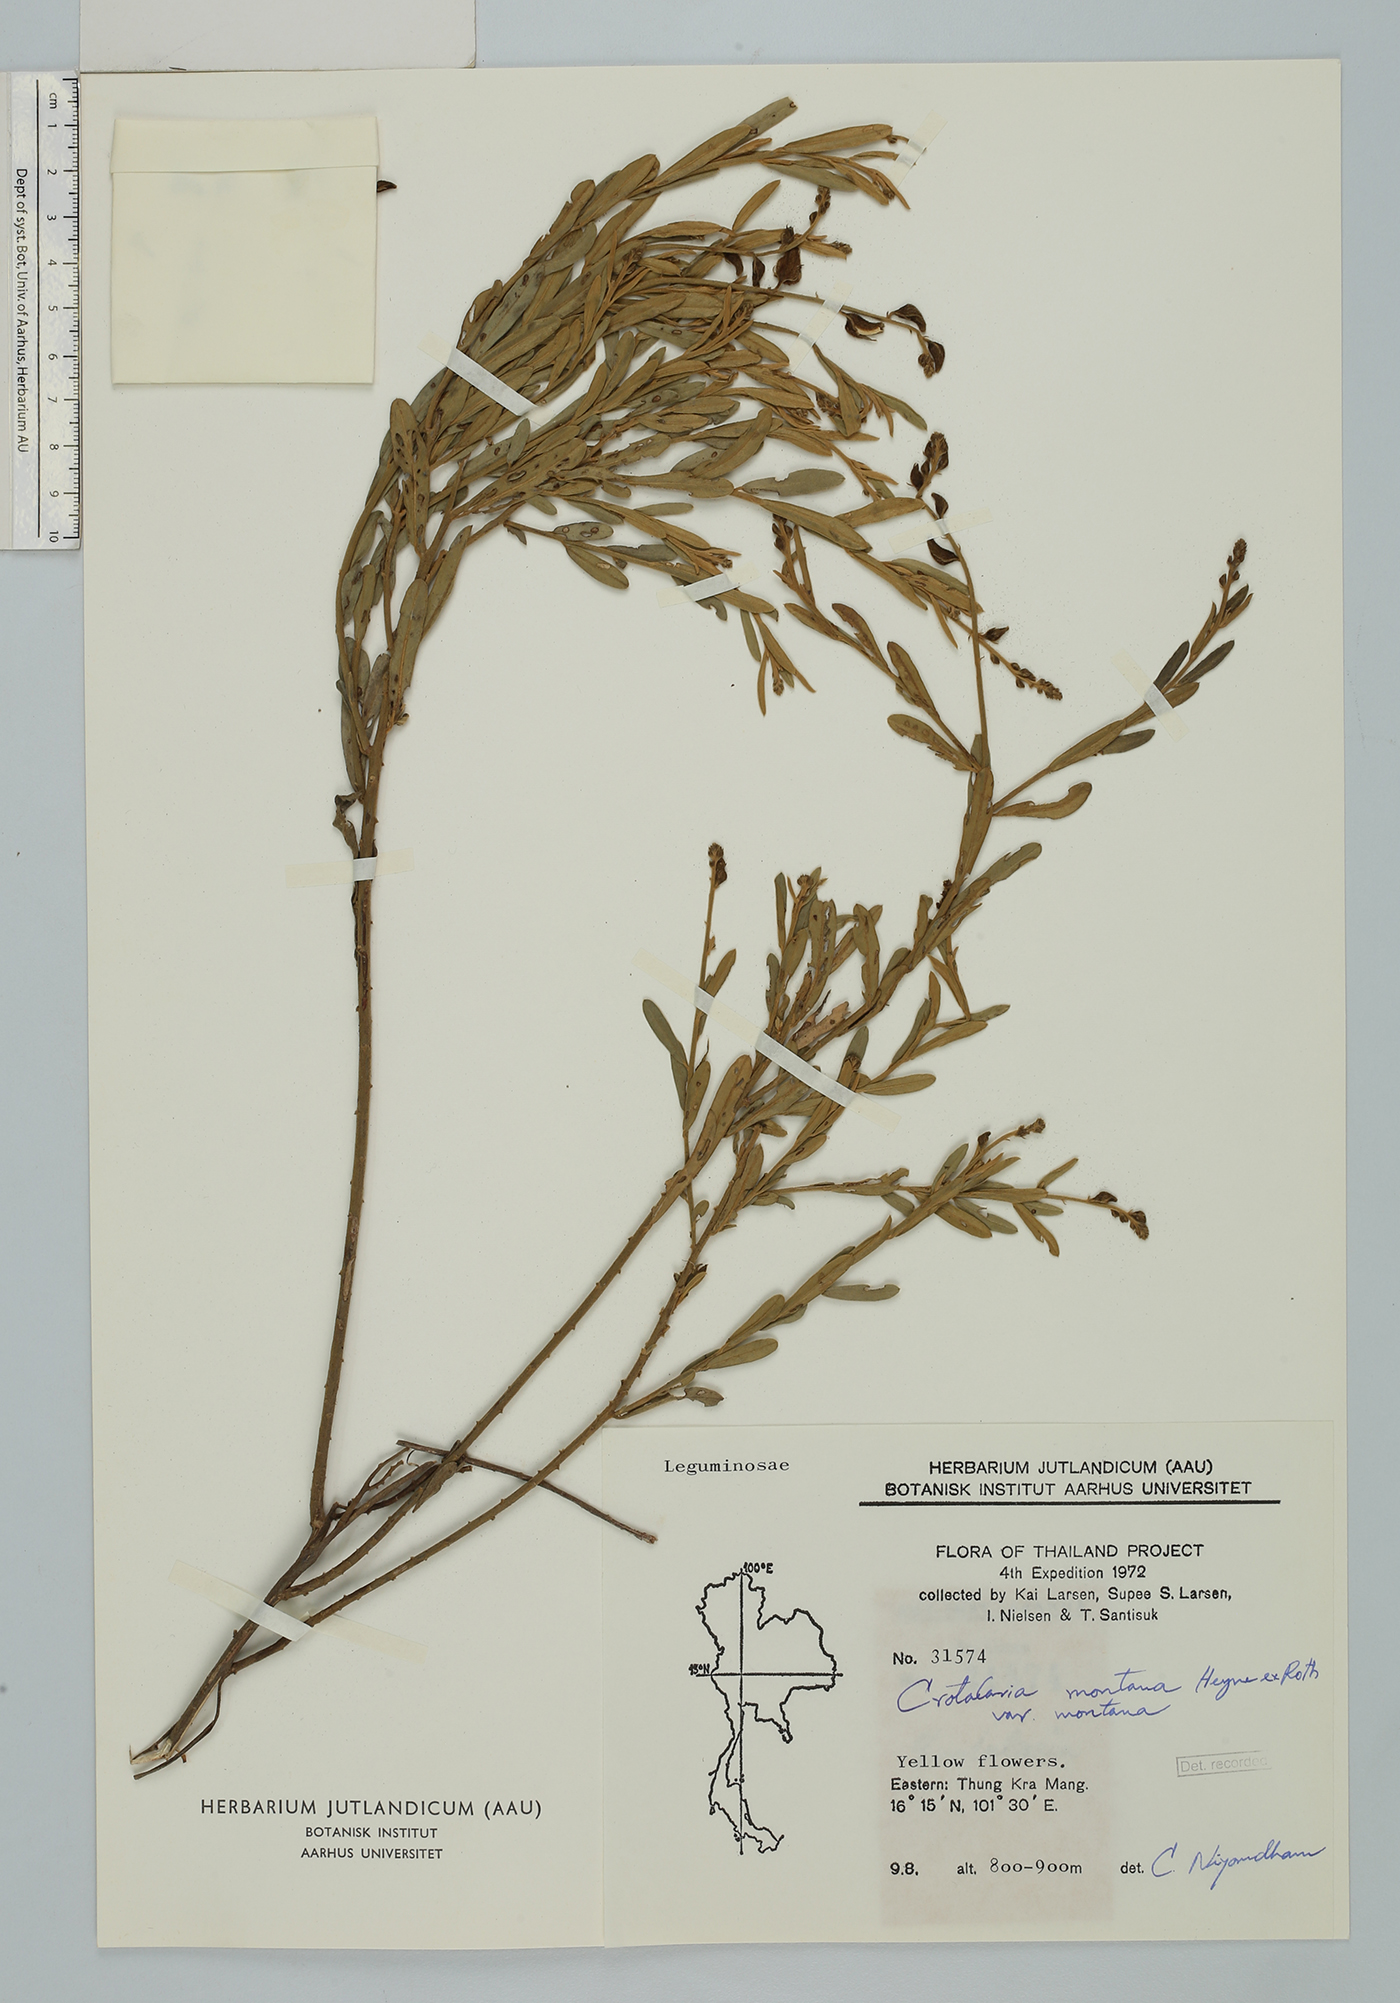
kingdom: Plantae
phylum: Tracheophyta
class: Magnoliopsida
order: Fabales
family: Fabaceae
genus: Crotalaria
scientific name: Crotalaria albida
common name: Taiwan crotalaria
